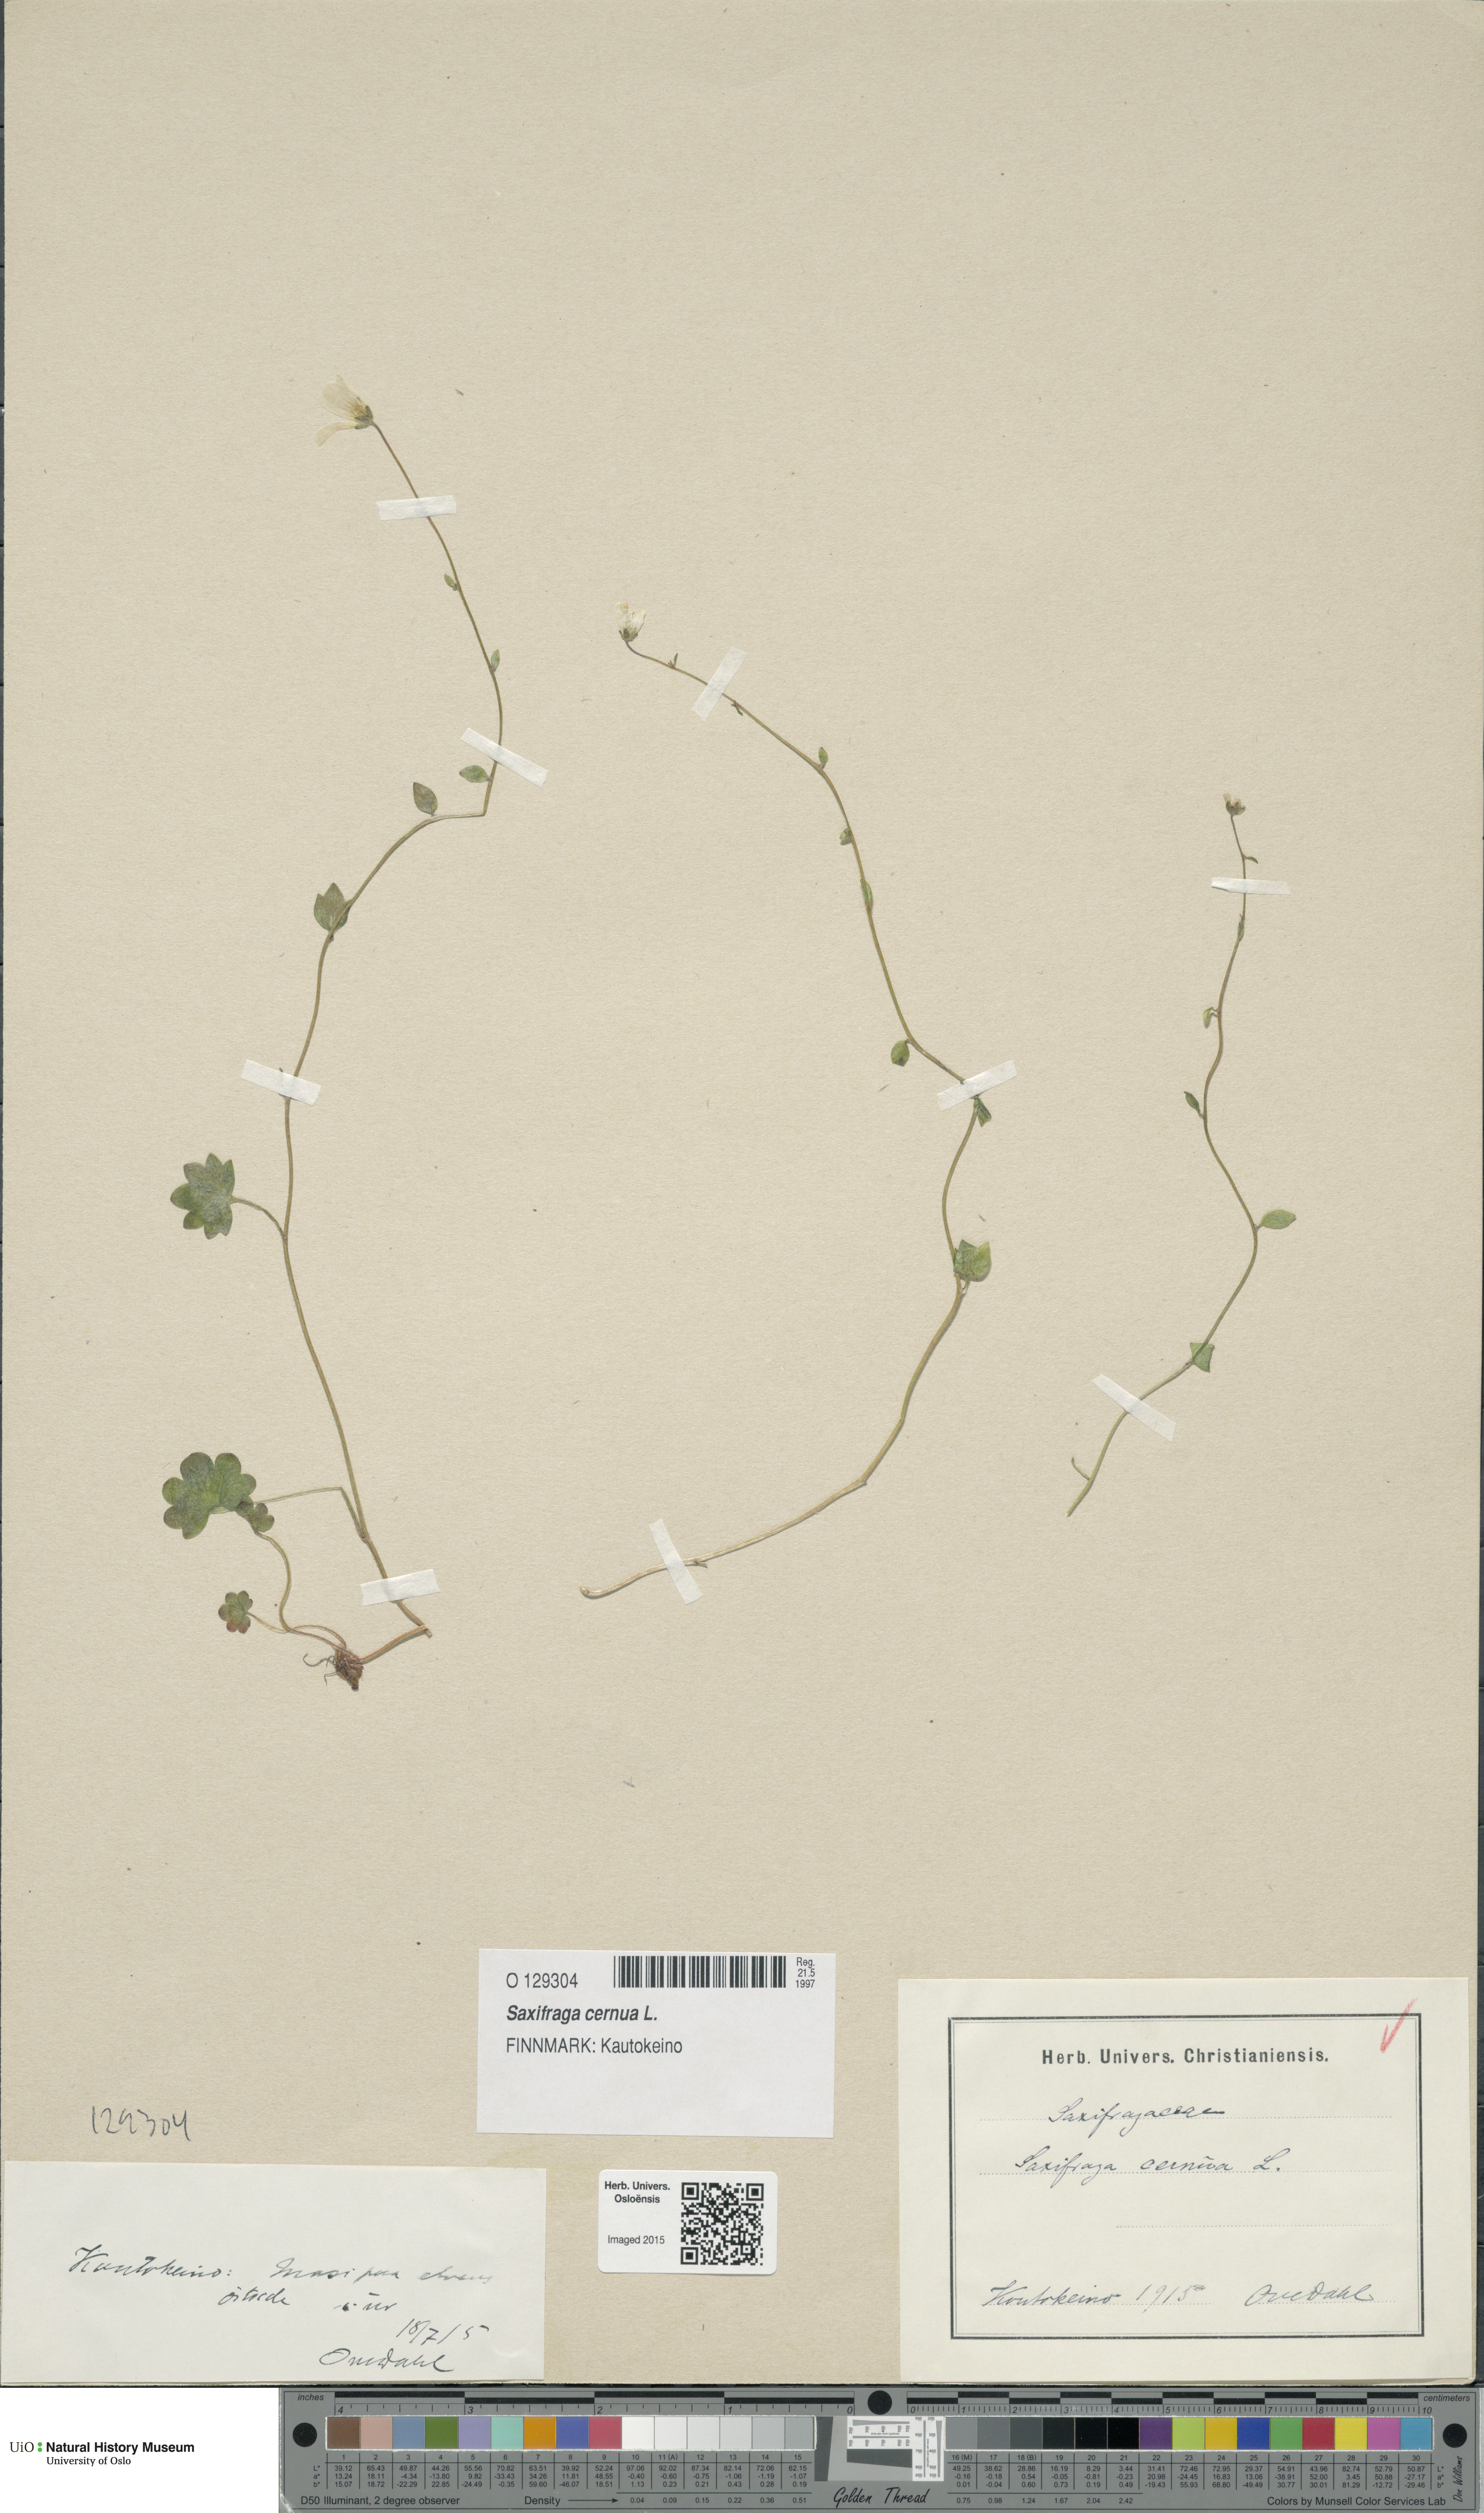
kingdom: Plantae
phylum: Tracheophyta
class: Magnoliopsida
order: Saxifragales
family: Saxifragaceae
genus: Saxifraga
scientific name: Saxifraga cernua
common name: Drooping saxifrage
